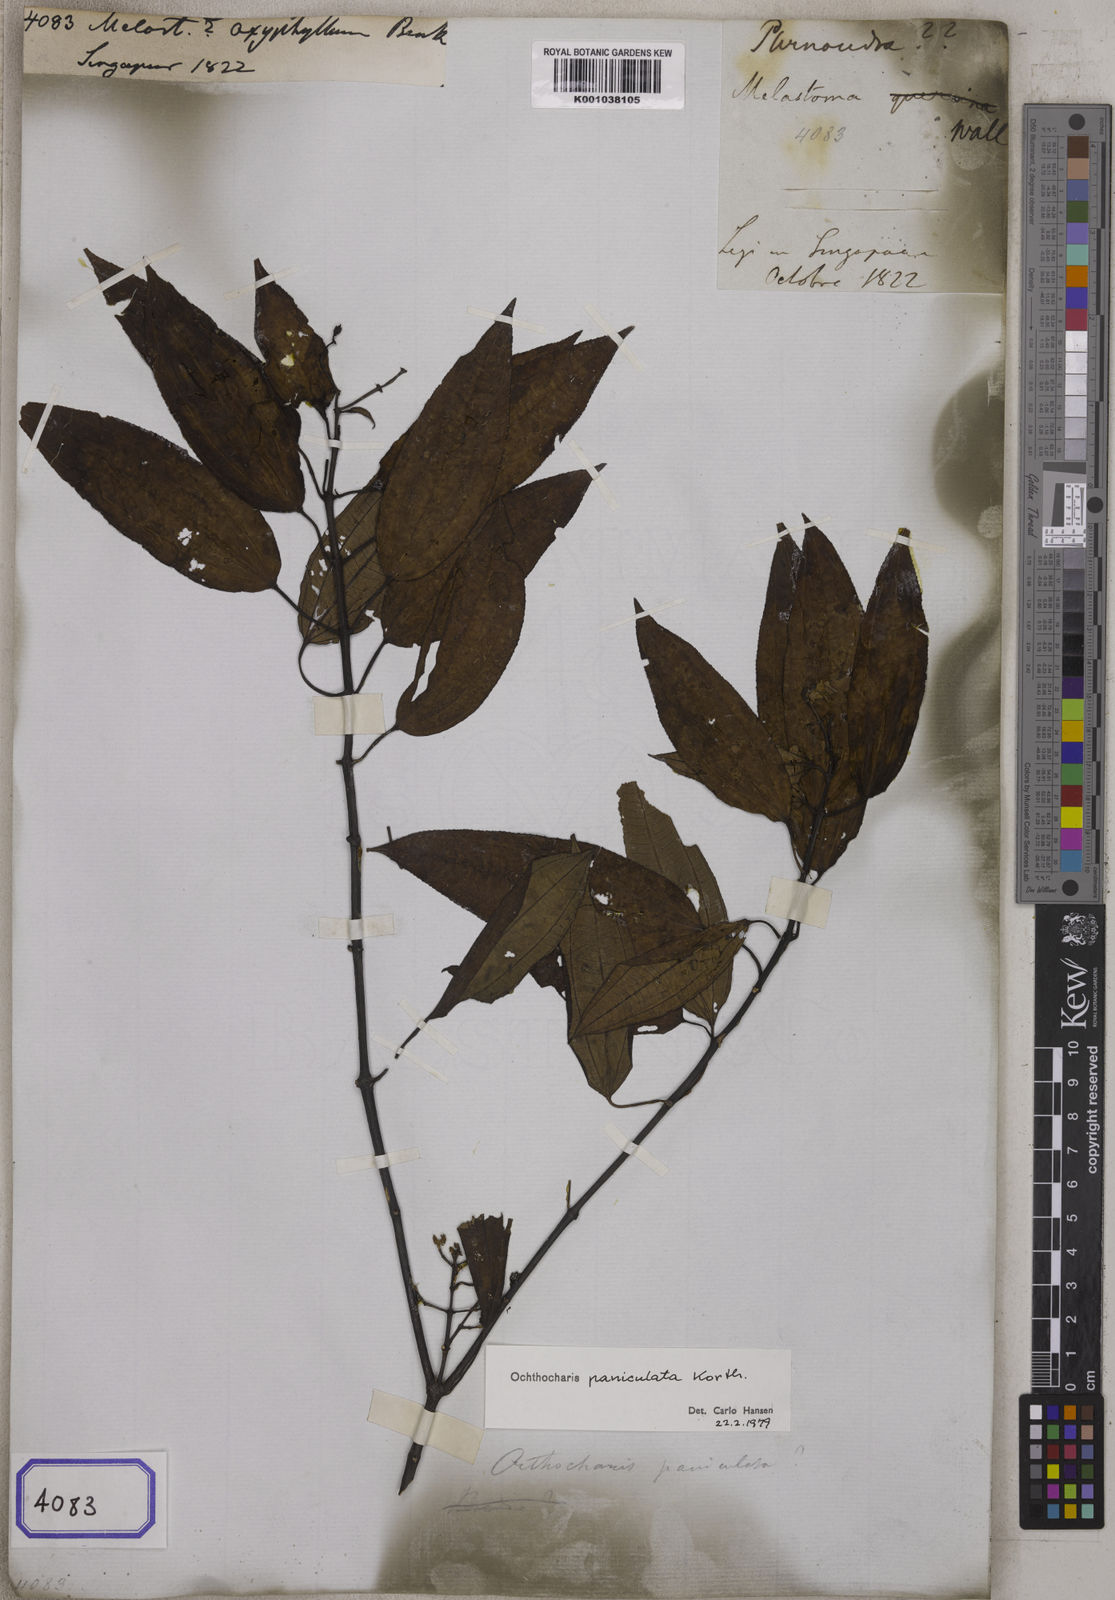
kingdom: Plantae
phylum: Tracheophyta
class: Magnoliopsida
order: Myrtales
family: Melastomataceae
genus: Melastoma
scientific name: Melastoma oxyphyllum
